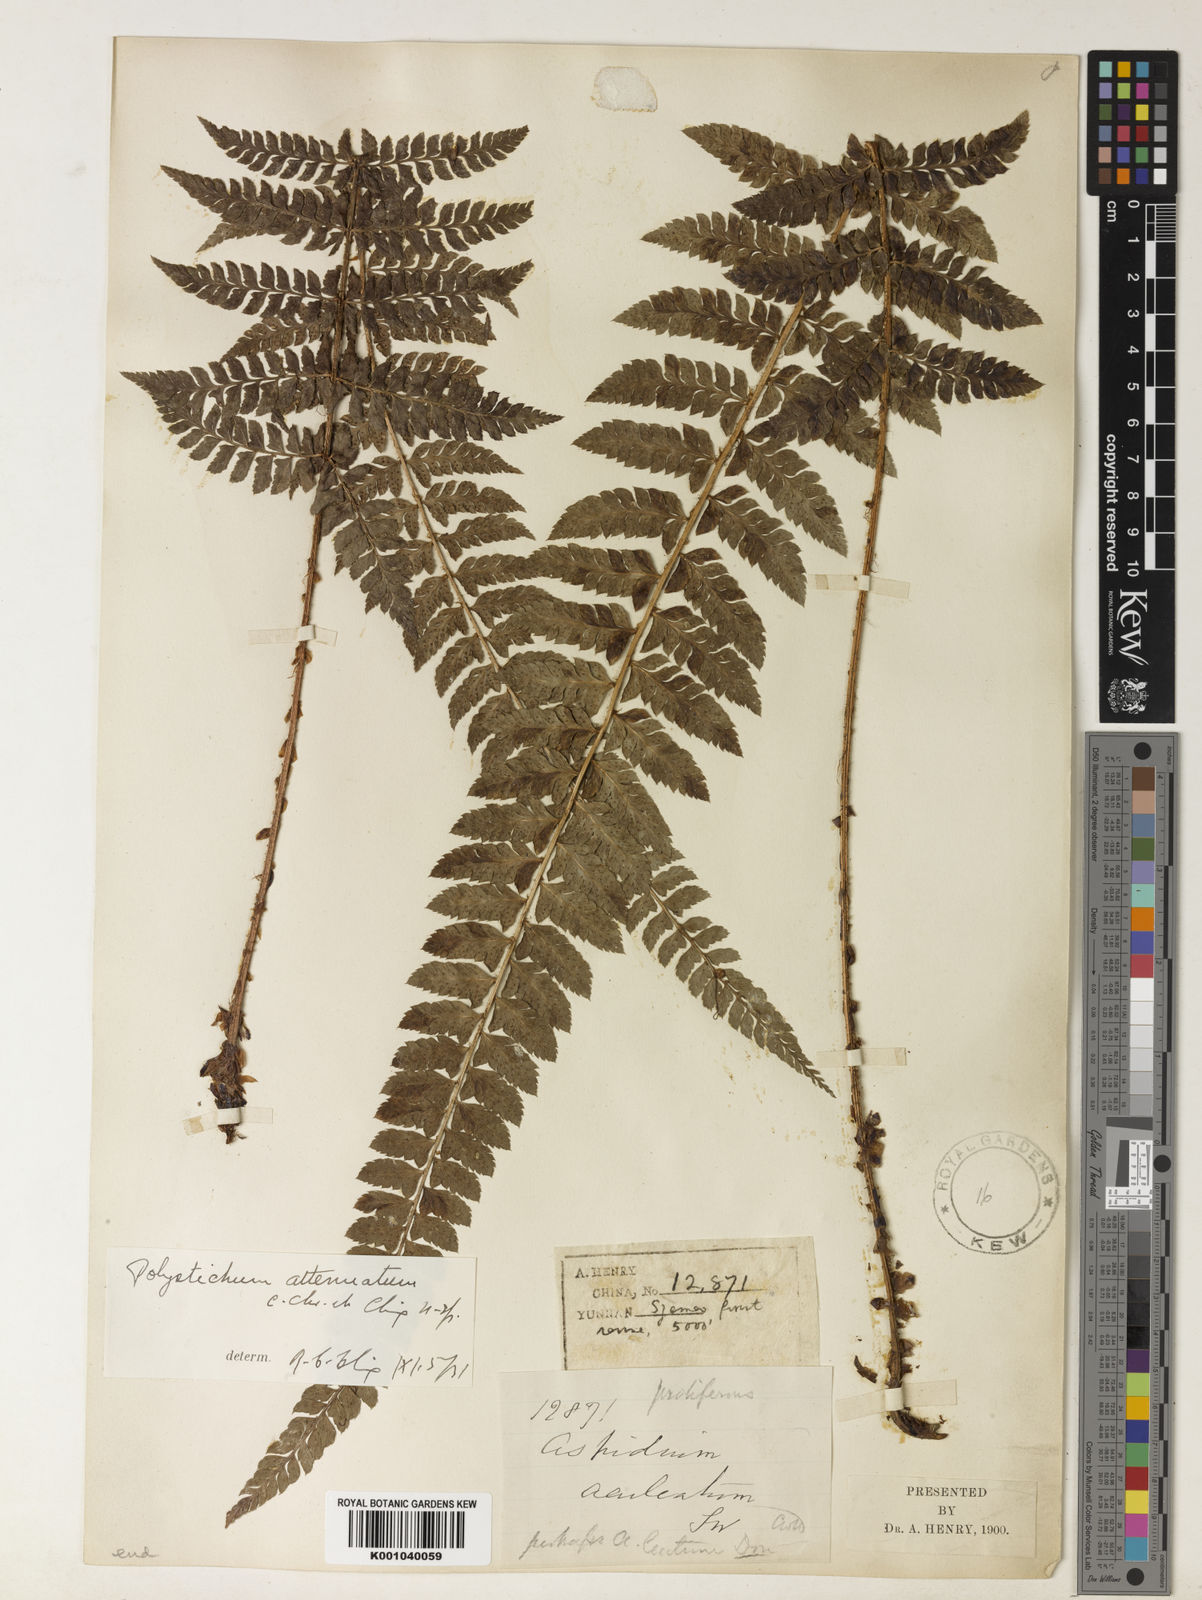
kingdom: Plantae
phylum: Tracheophyta
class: Polypodiopsida
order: Polypodiales
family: Dryopteridaceae
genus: Polystichum
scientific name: Polystichum meeboldii
